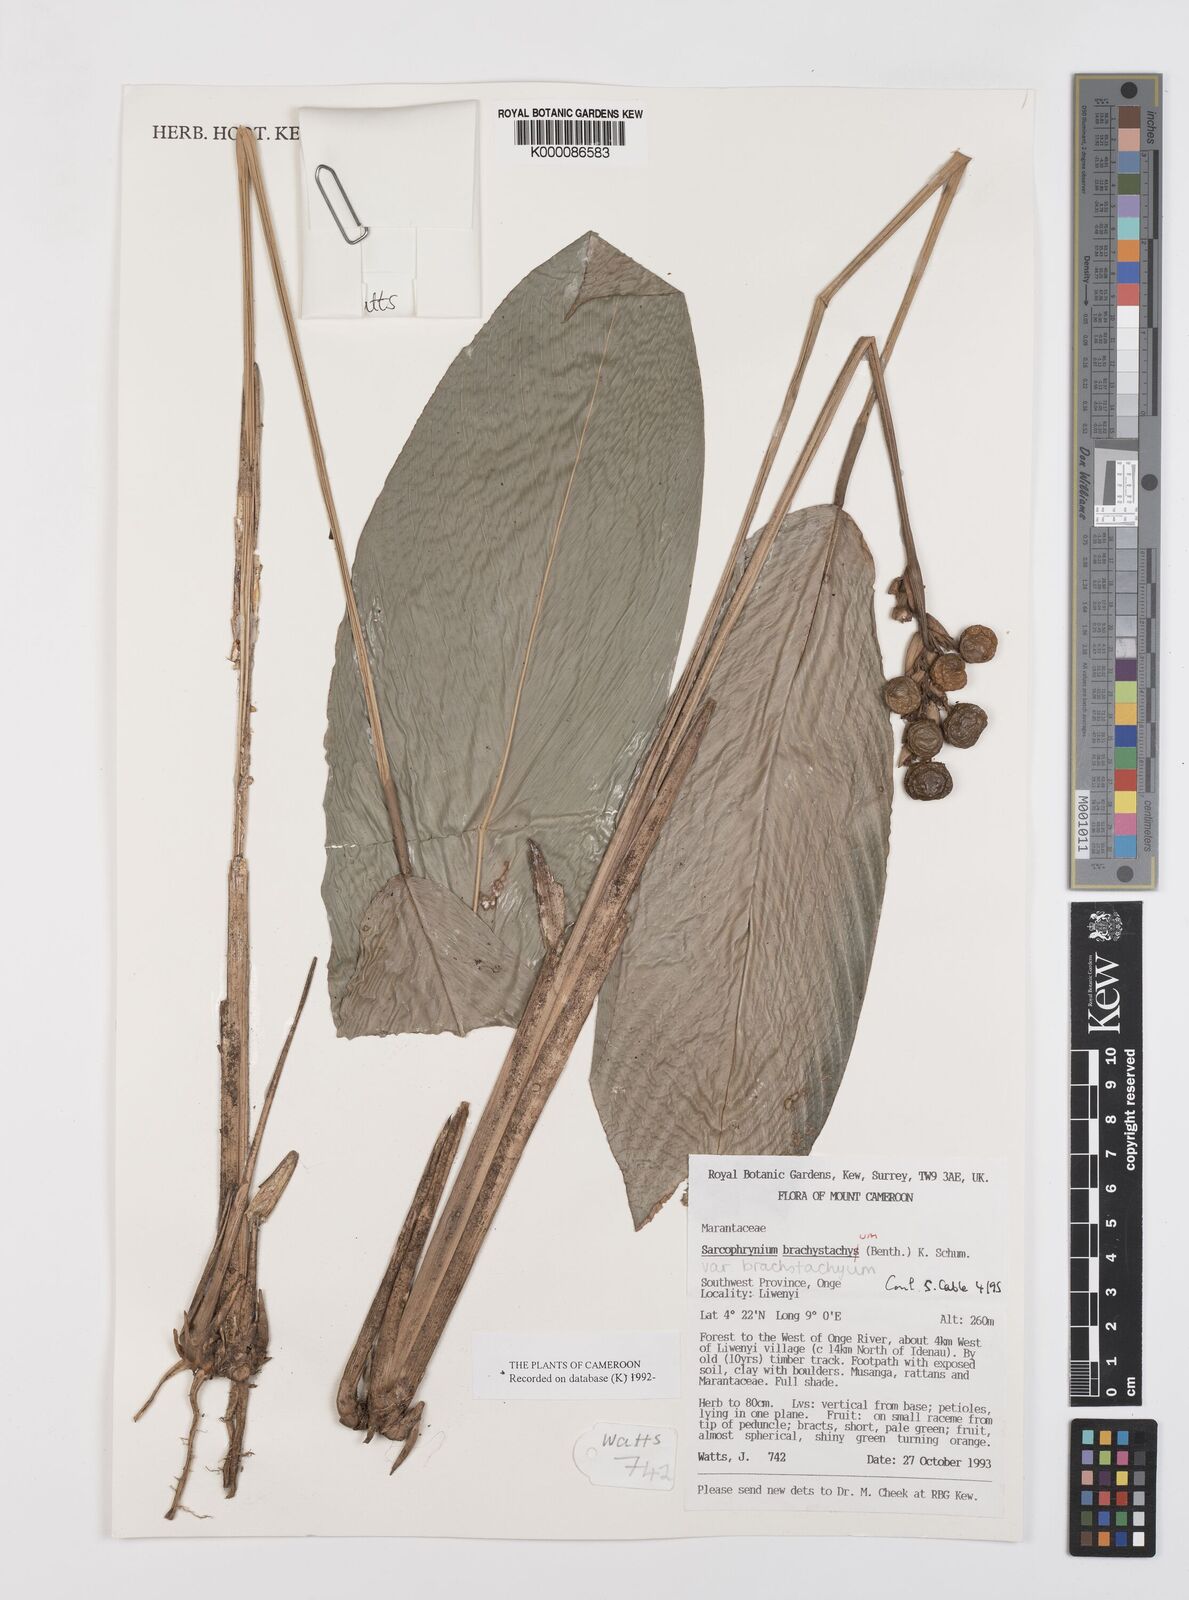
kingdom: Plantae
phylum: Tracheophyta
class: Liliopsida
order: Zingiberales
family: Marantaceae
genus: Sarcophrynium
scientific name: Sarcophrynium
